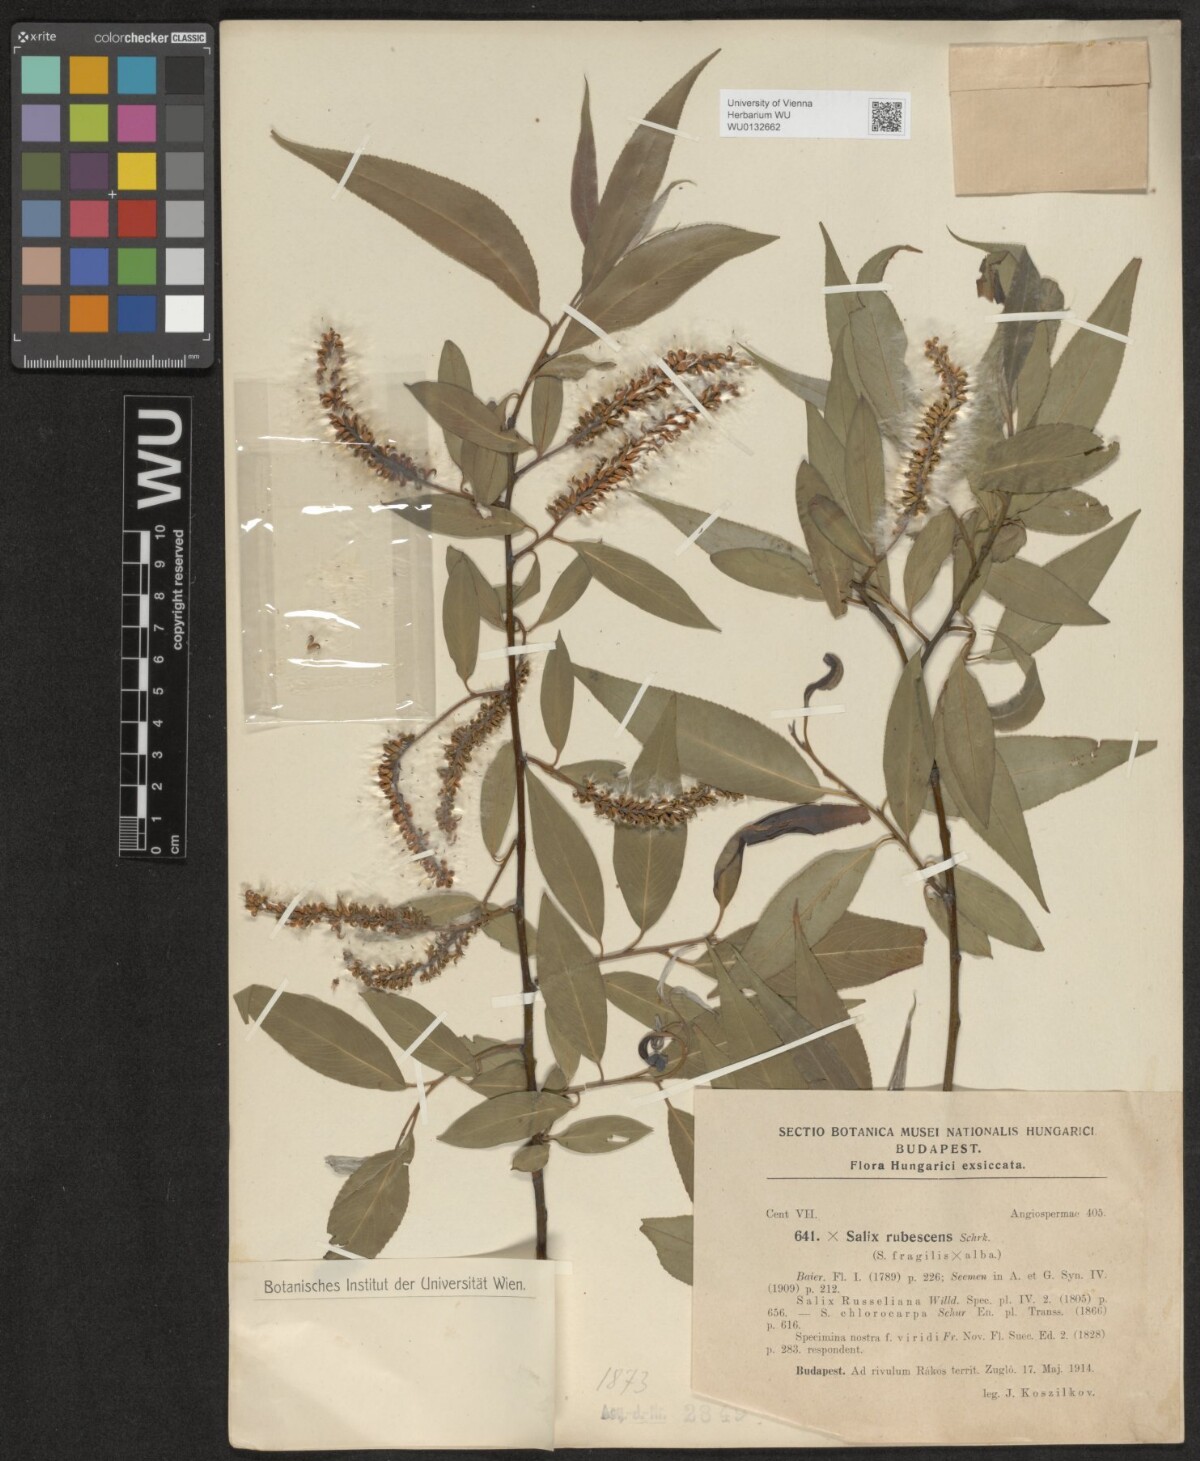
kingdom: Plantae
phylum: Tracheophyta
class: Magnoliopsida
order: Malpighiales
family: Salicaceae
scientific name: Salicaceae
